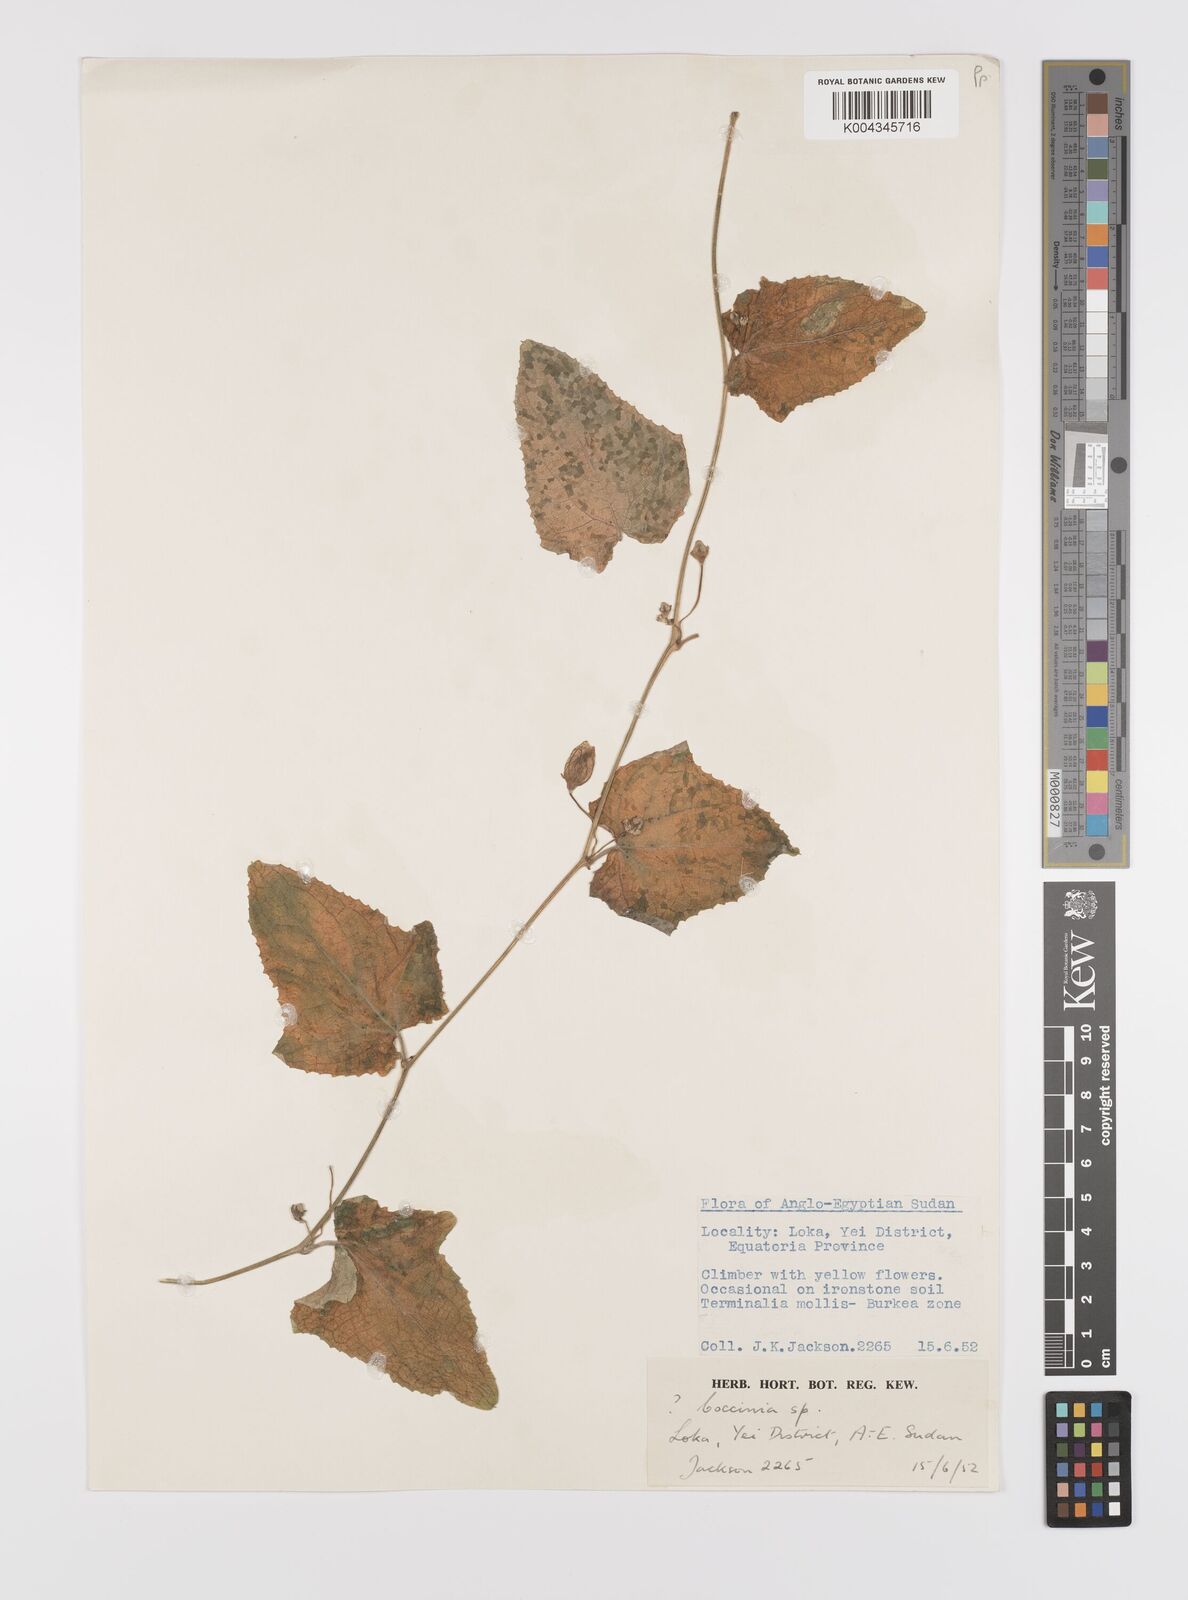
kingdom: Plantae
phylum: Tracheophyta
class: Magnoliopsida
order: Cucurbitales
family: Cucurbitaceae
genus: Coccinia
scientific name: Coccinia adoensis
